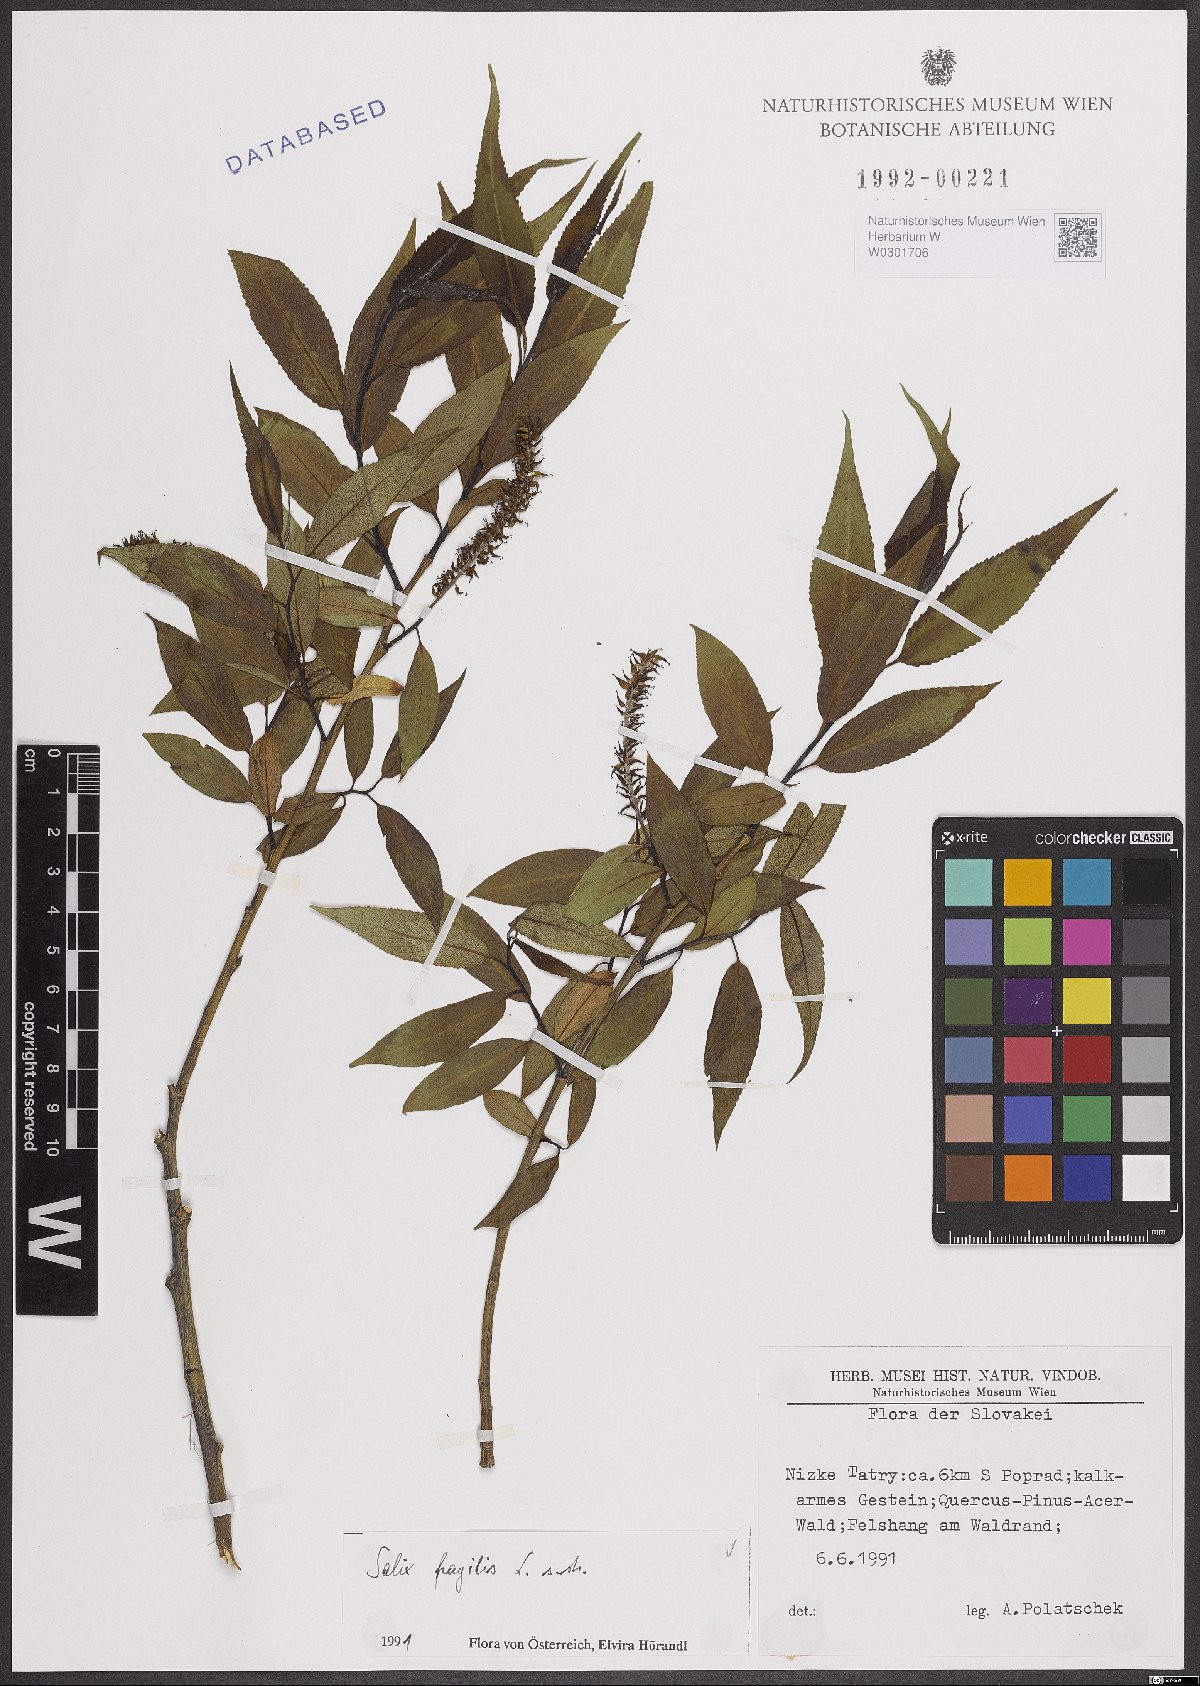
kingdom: Plantae
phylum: Tracheophyta
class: Magnoliopsida
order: Malpighiales
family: Salicaceae
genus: Salix
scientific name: Salix fragilis
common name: Crack willow
